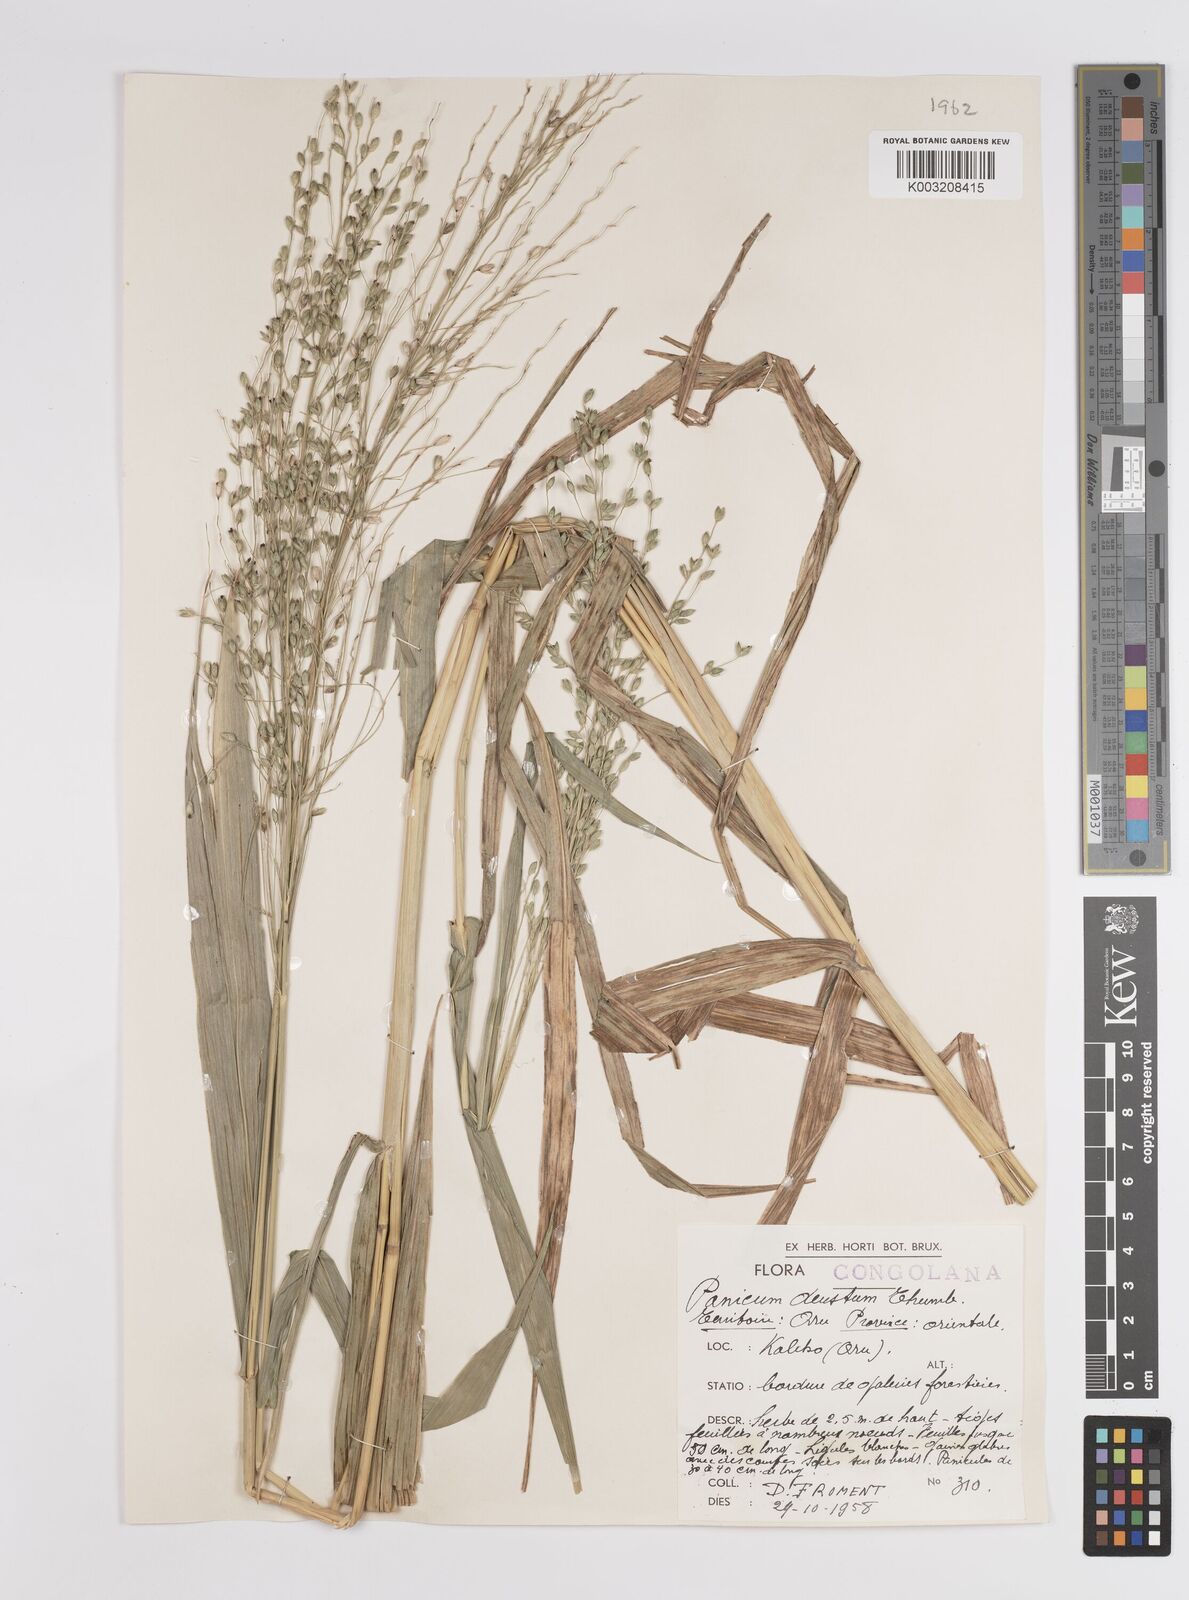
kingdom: Plantae
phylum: Tracheophyta
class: Liliopsida
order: Poales
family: Poaceae
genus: Panicum
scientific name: Panicum deustum
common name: Reed panicum
